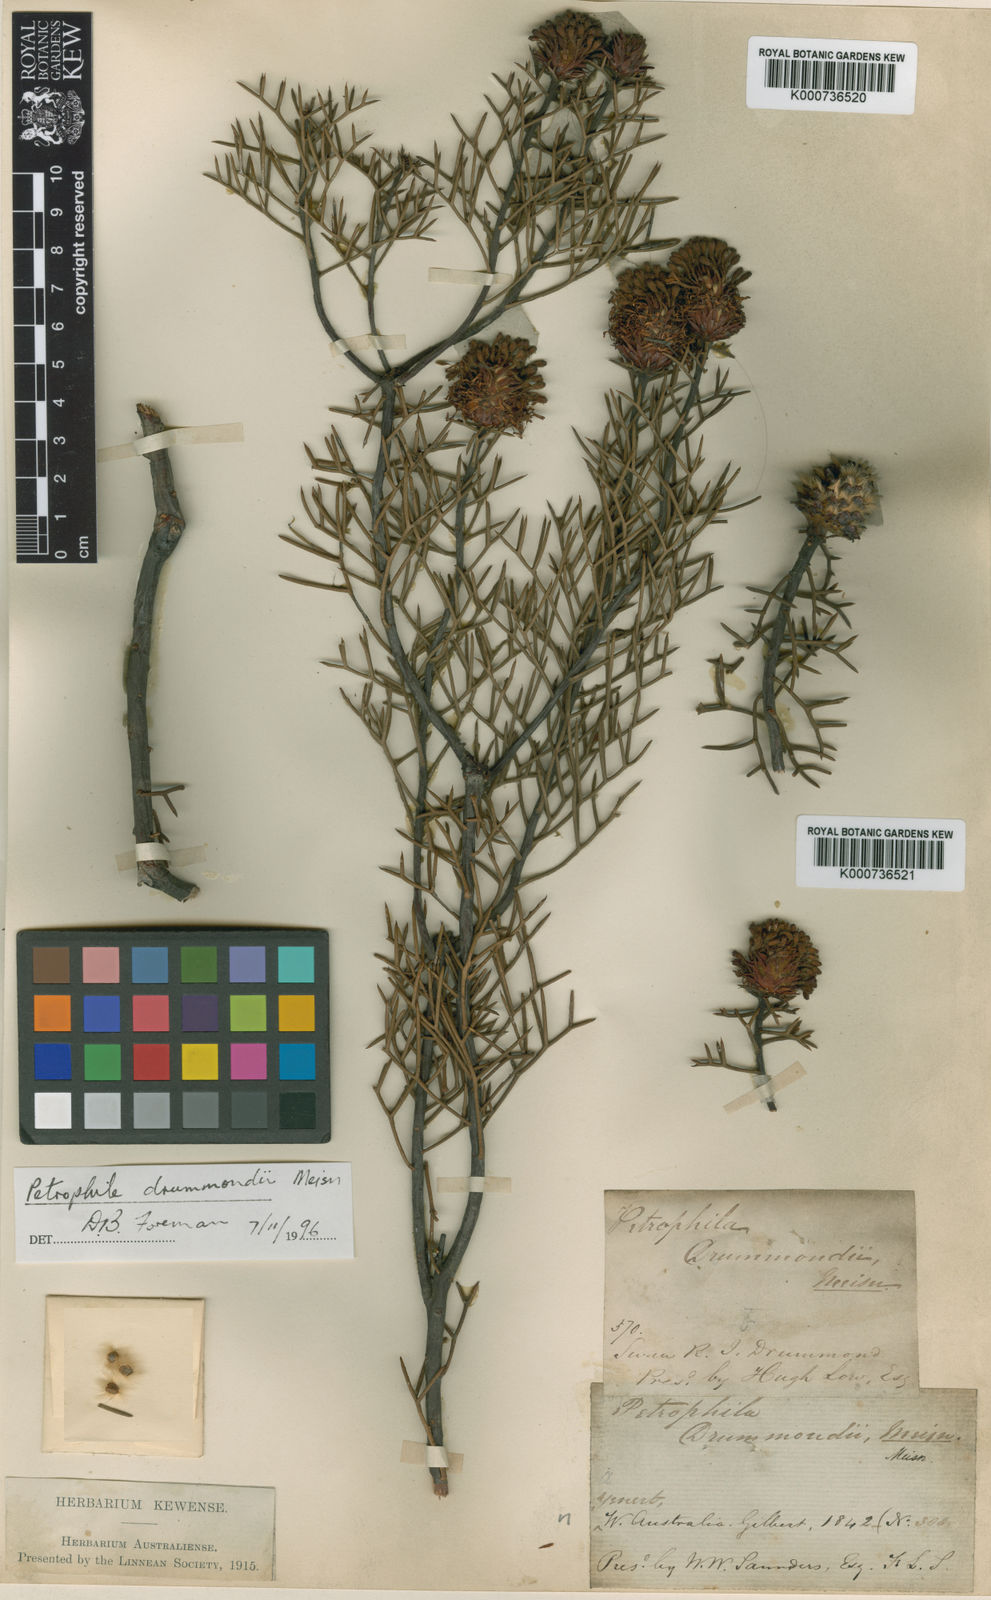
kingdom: Plantae
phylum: Tracheophyta
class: Magnoliopsida
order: Proteales
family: Proteaceae
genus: Petrophile
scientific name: Petrophile drummondii
